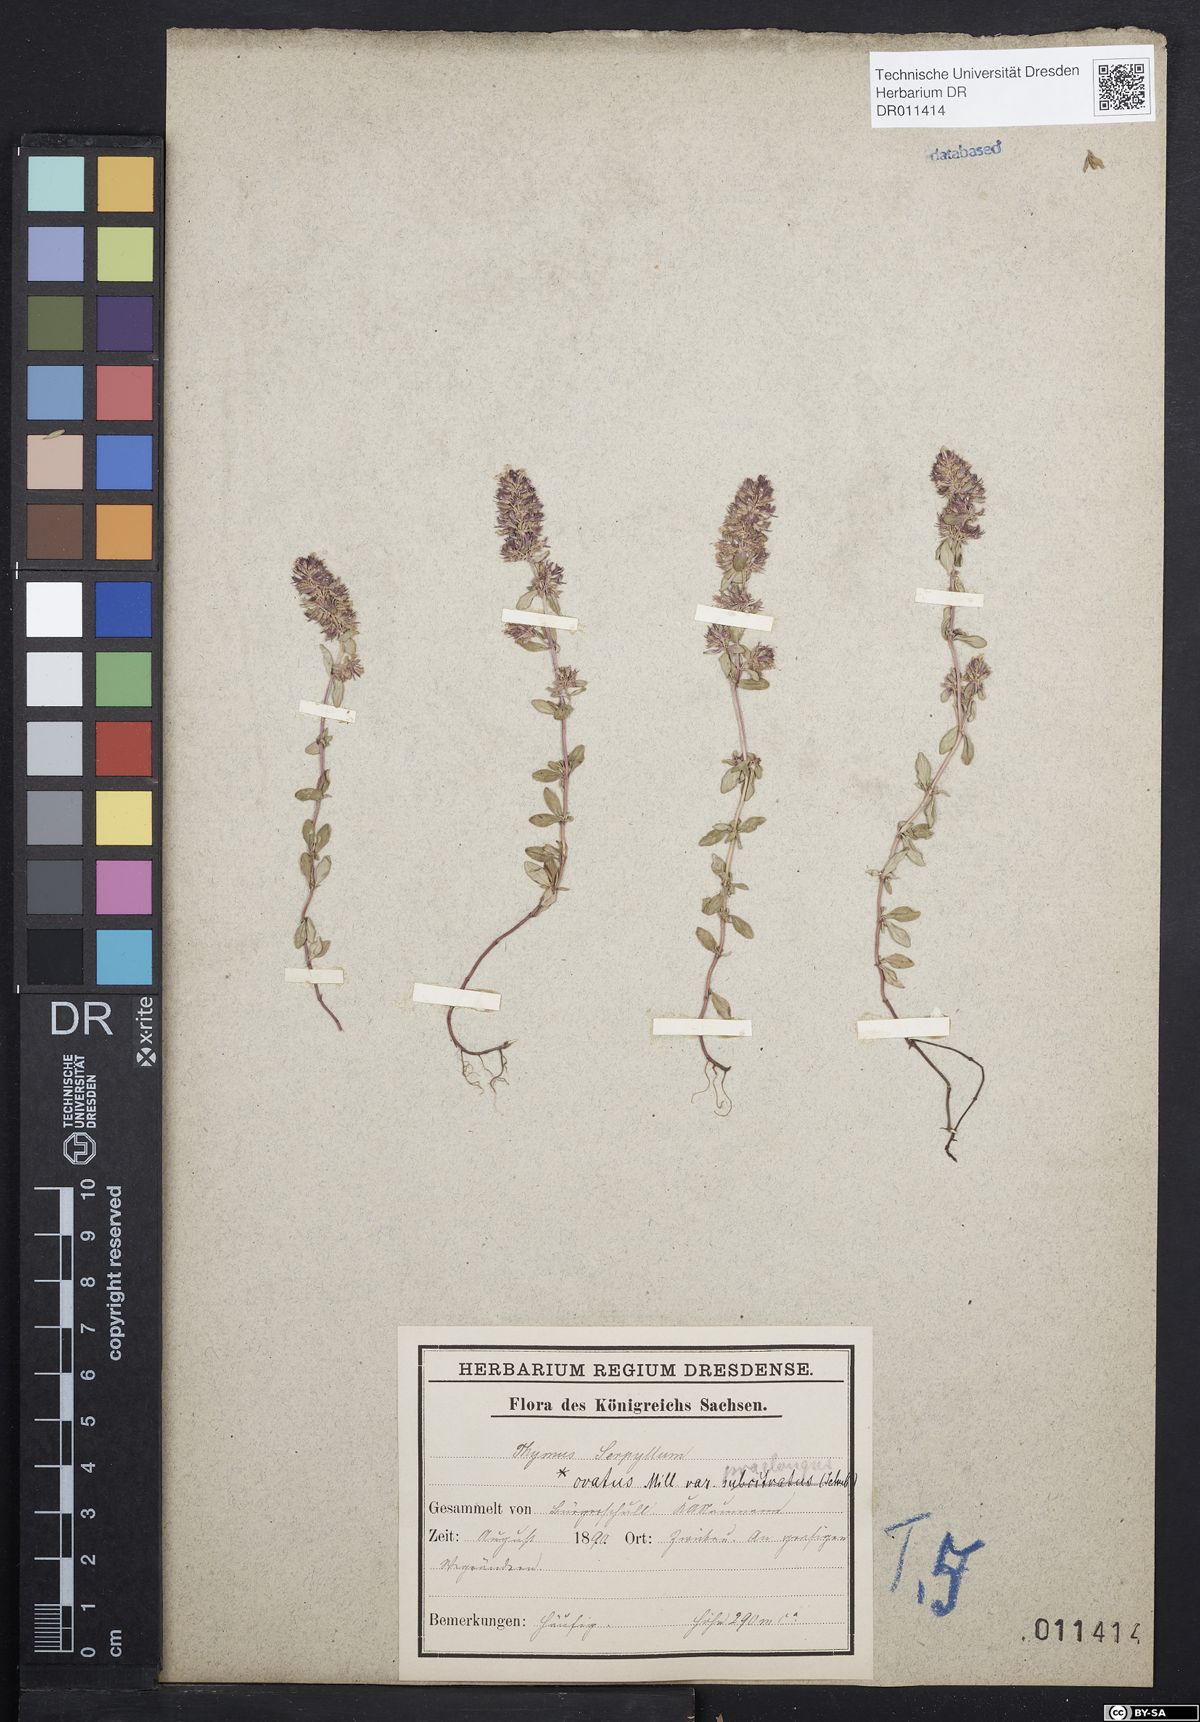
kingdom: Plantae
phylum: Tracheophyta
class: Magnoliopsida
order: Lamiales
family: Lamiaceae
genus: Thymus
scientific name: Thymus pulegioides
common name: Large thyme
